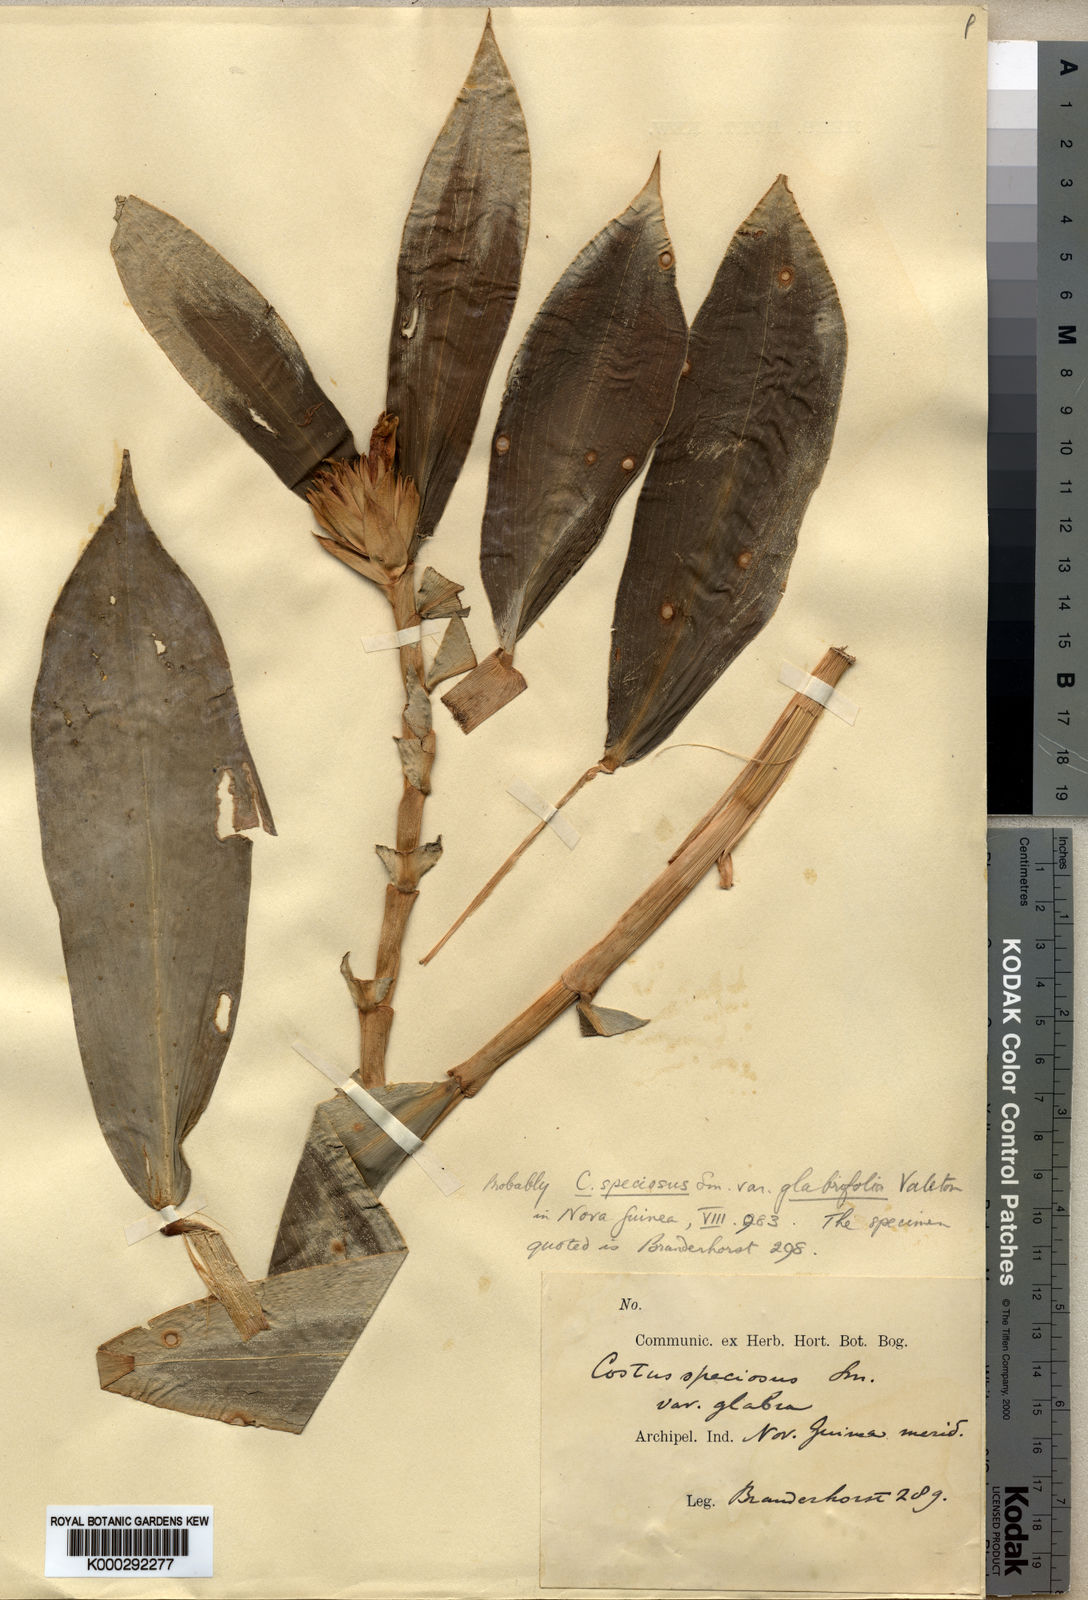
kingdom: Plantae
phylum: Tracheophyta
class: Liliopsida
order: Zingiberales
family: Costaceae
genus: Hellenia
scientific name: Hellenia speciosa
